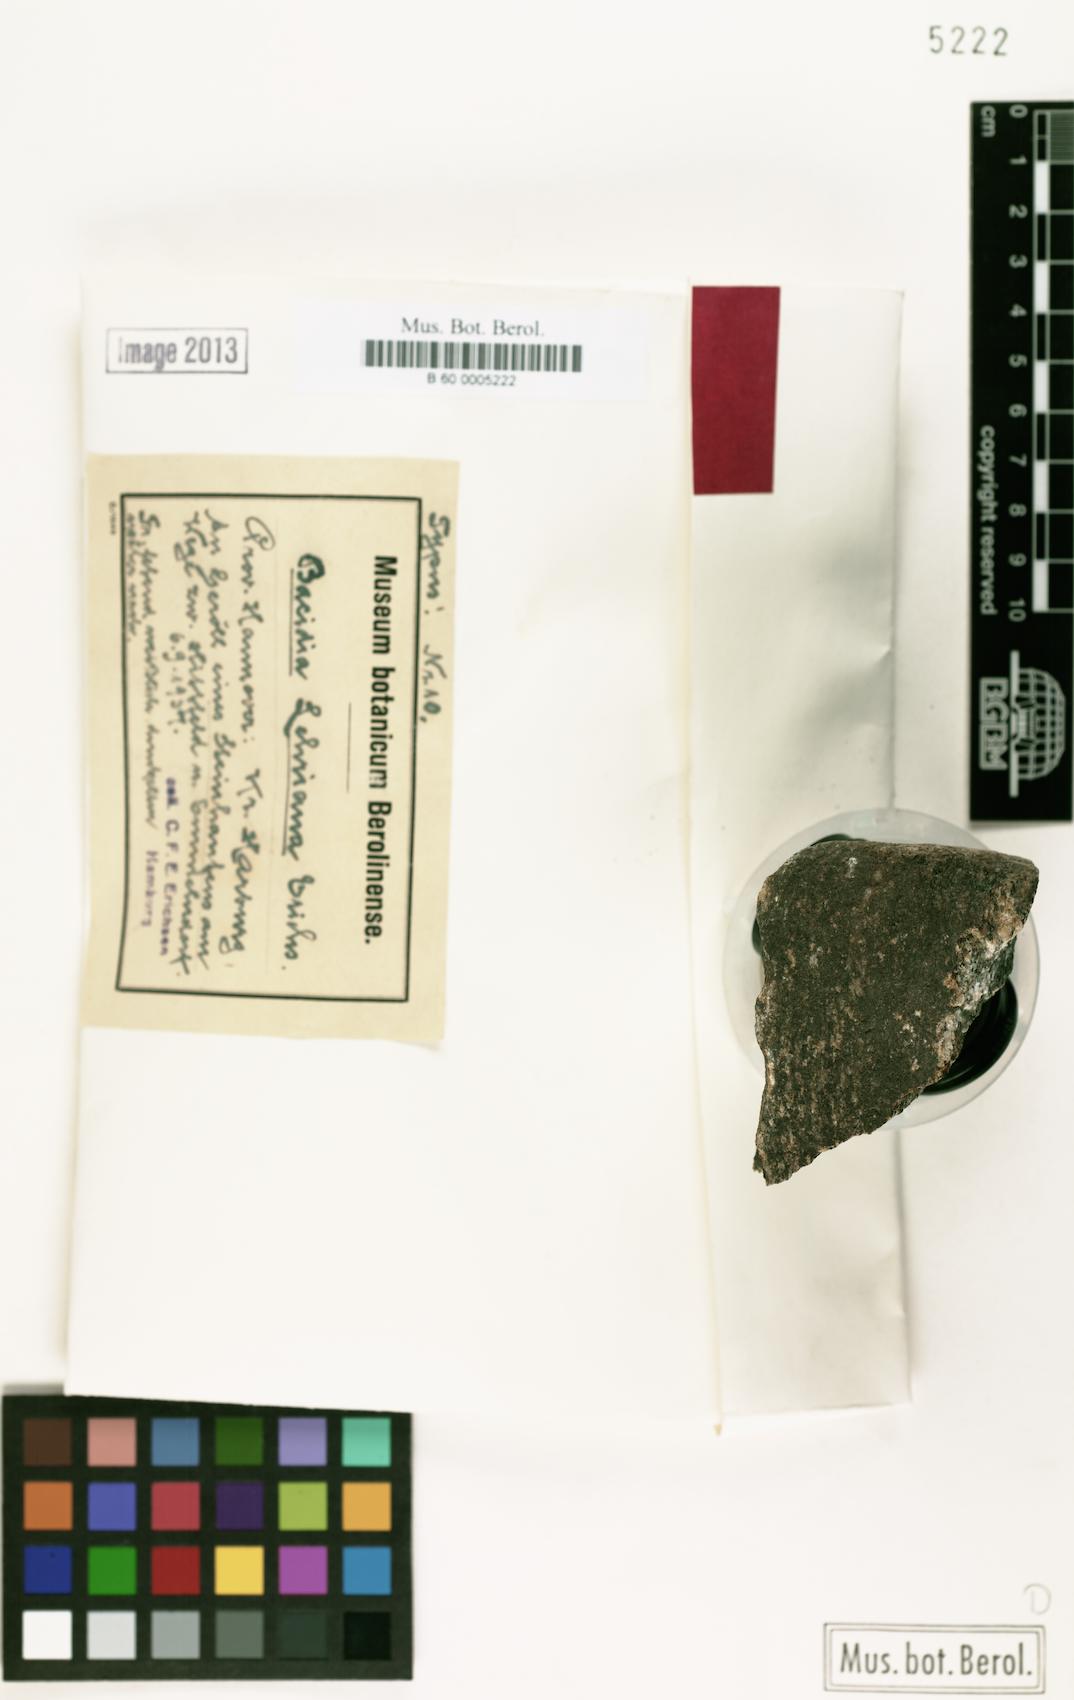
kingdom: Fungi
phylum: Ascomycota
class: Lecanoromycetes
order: Lecanorales
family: Ramalinaceae
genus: Bacidina
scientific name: Bacidina chloroticula
